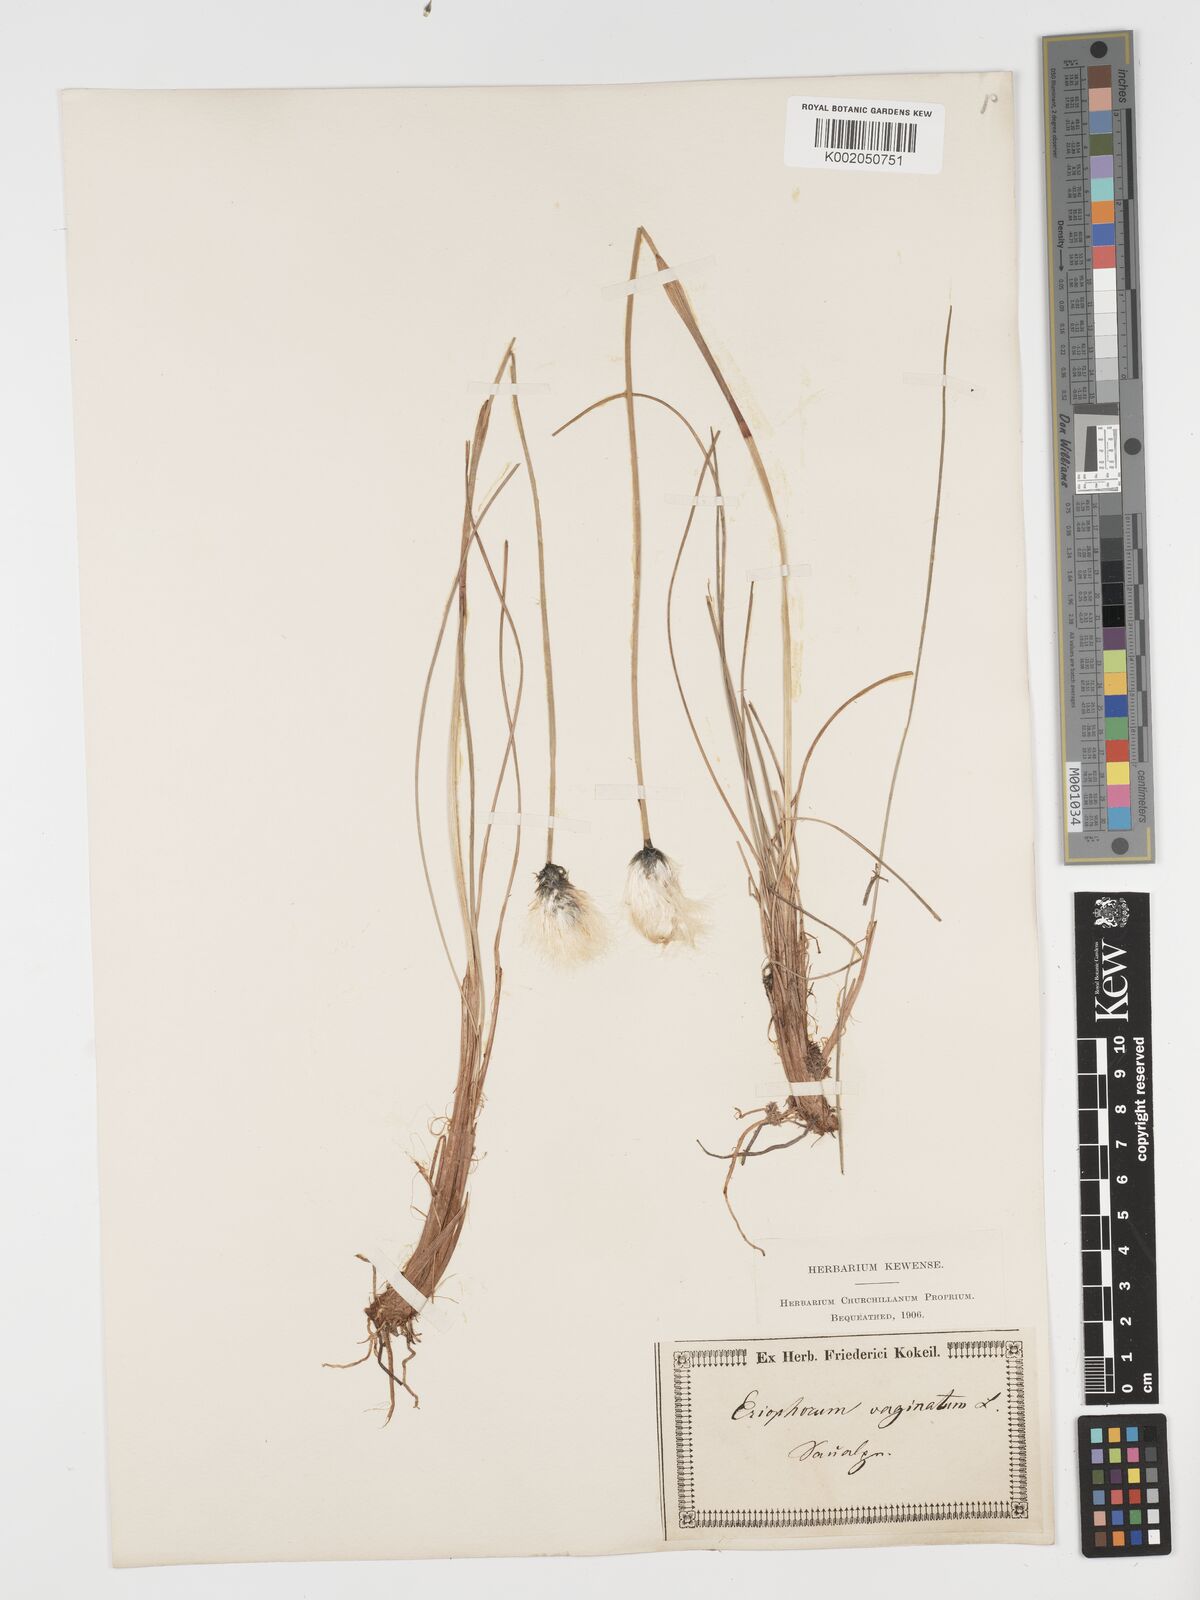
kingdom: Plantae
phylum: Tracheophyta
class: Liliopsida
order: Poales
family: Cyperaceae
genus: Eriophorum
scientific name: Eriophorum vaginatum
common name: Hare's-tail cottongrass
